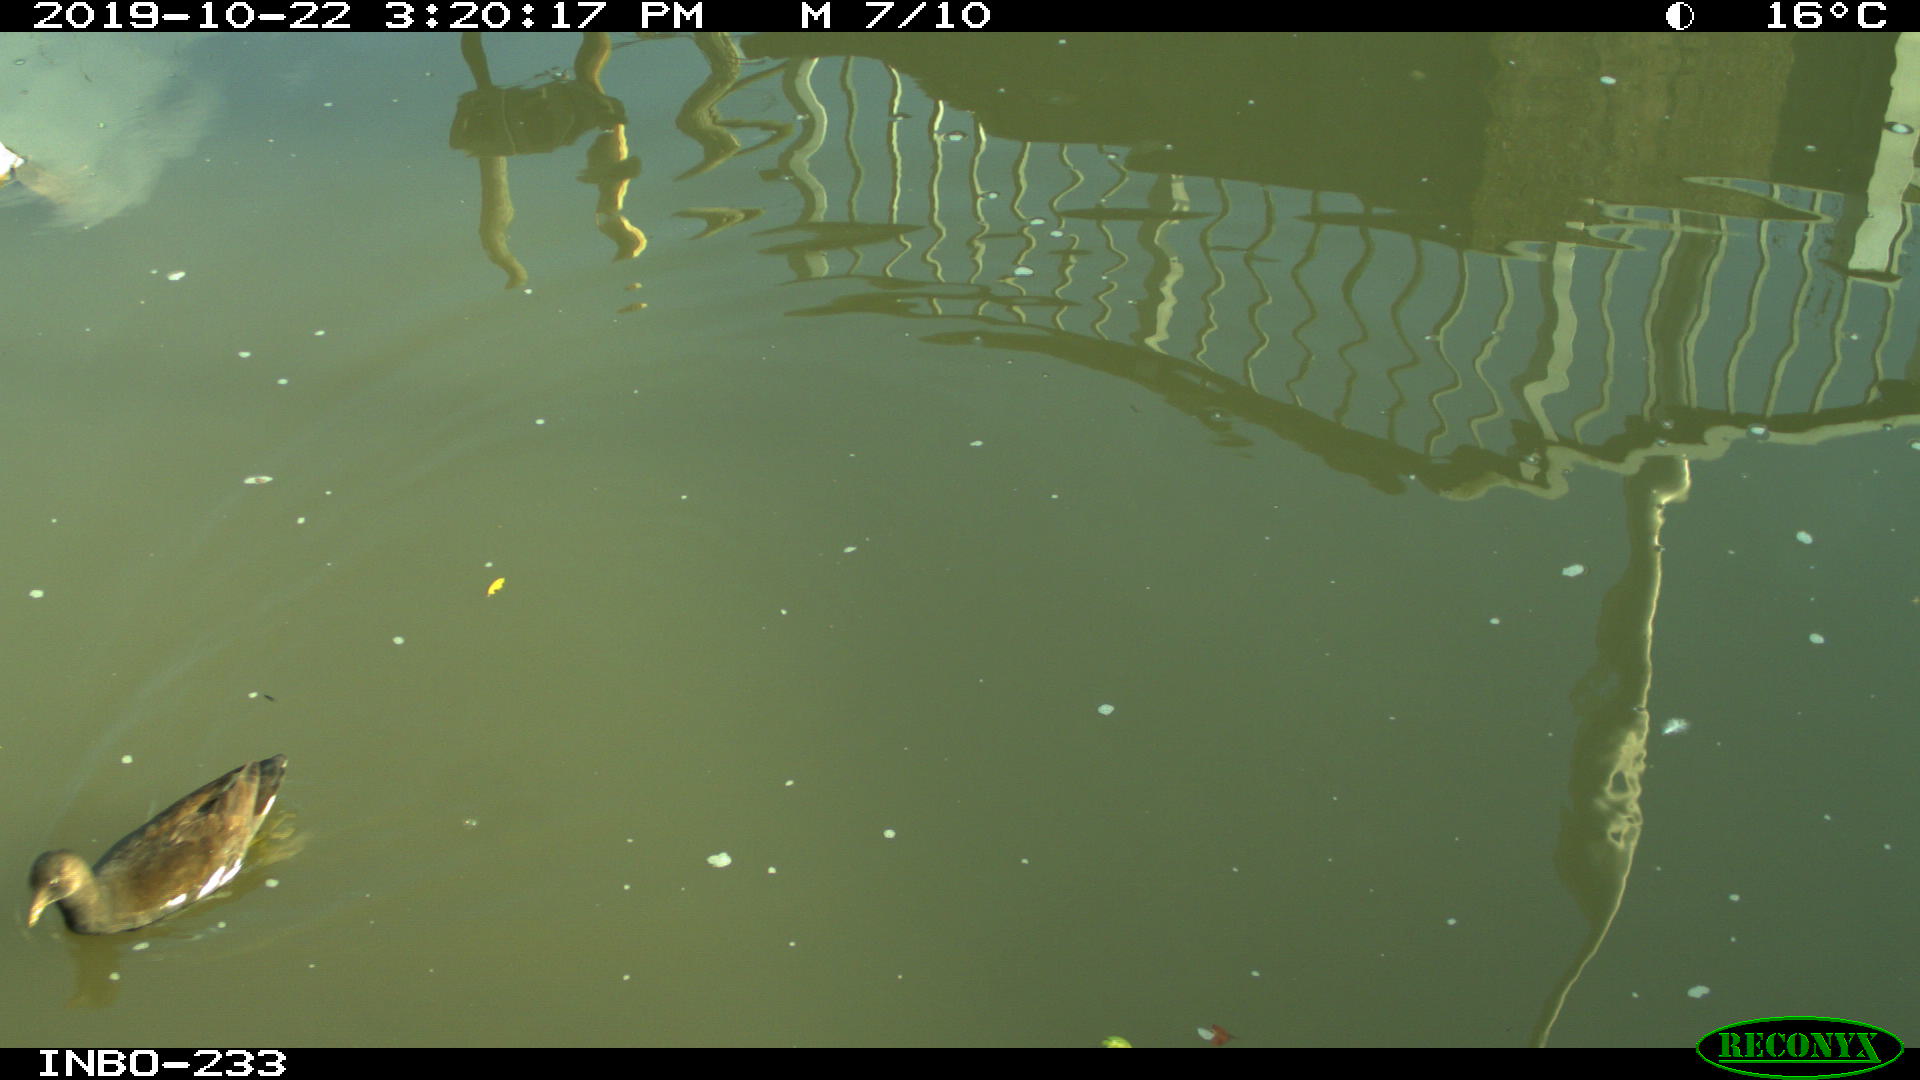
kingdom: Animalia
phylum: Chordata
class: Aves
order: Gruiformes
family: Rallidae
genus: Gallinula
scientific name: Gallinula chloropus
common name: Common moorhen
